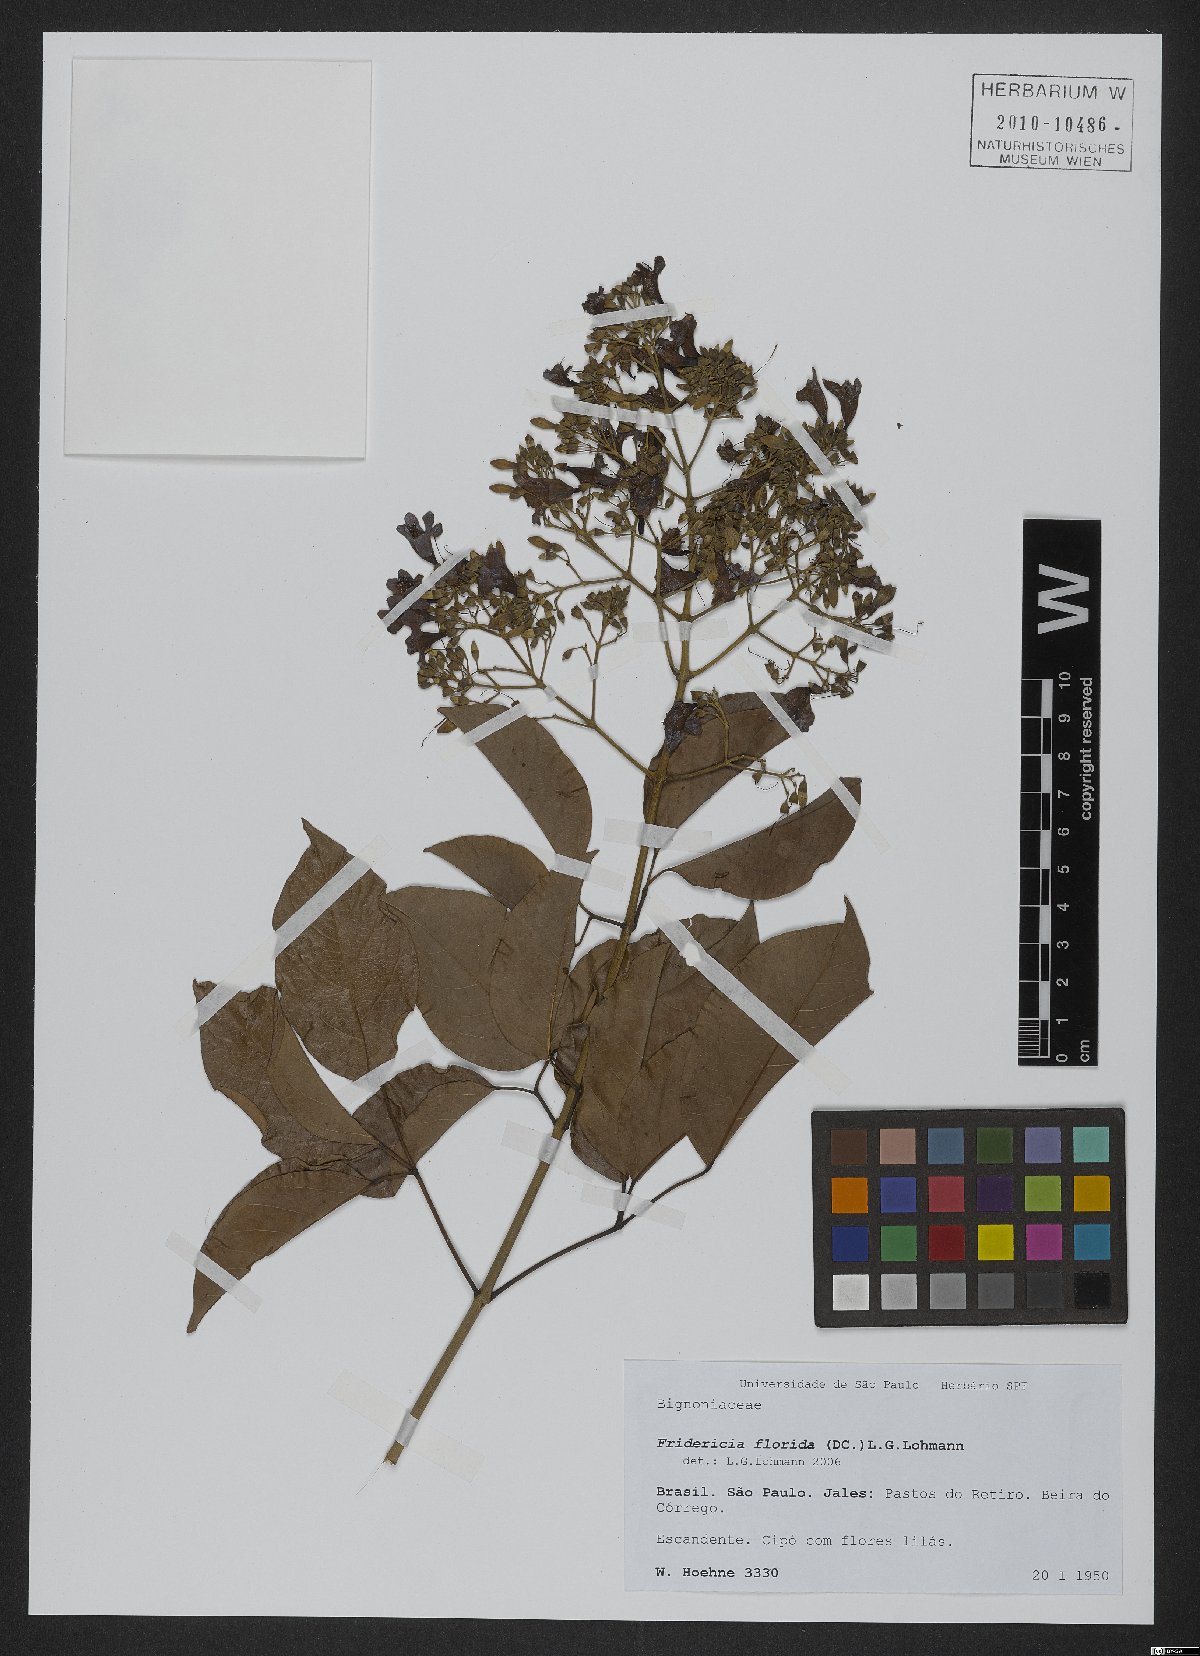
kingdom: Plantae
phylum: Tracheophyta
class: Magnoliopsida
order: Lamiales
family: Bignoniaceae
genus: Fridericia
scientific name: Fridericia florida
